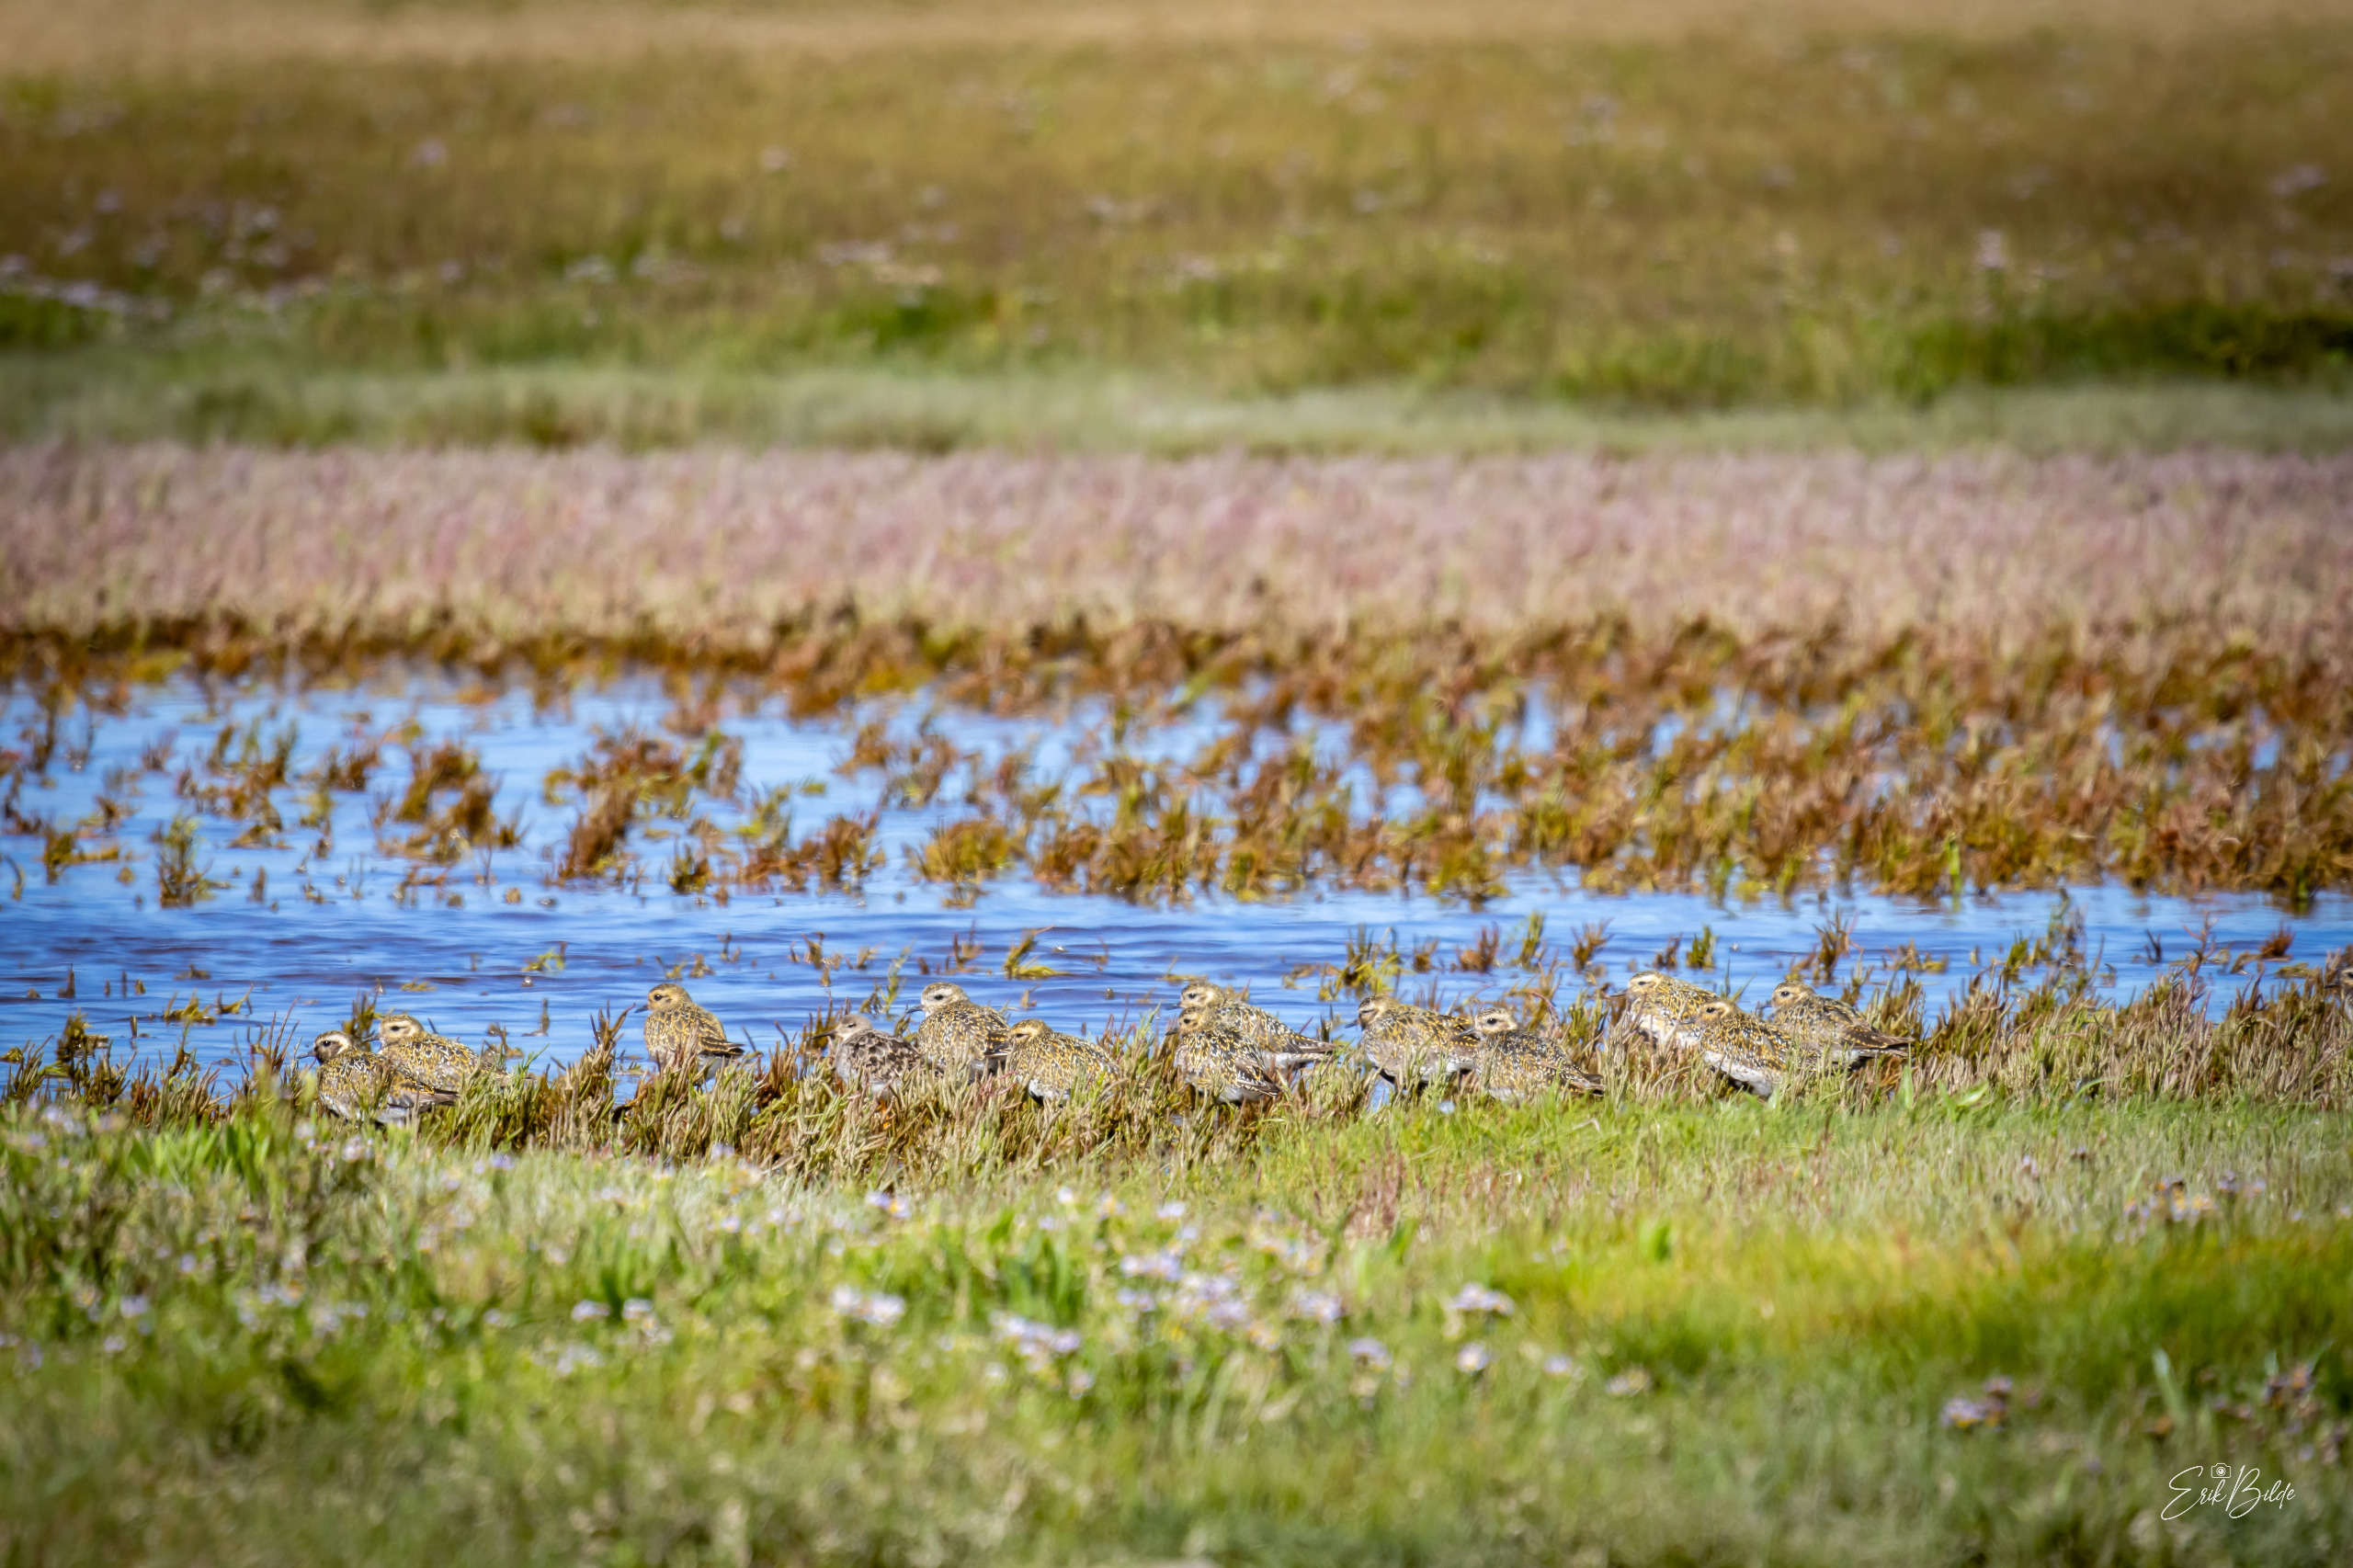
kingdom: Animalia
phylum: Chordata
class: Aves
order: Charadriiformes
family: Charadriidae
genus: Pluvialis
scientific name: Pluvialis apricaria
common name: Hjejle
